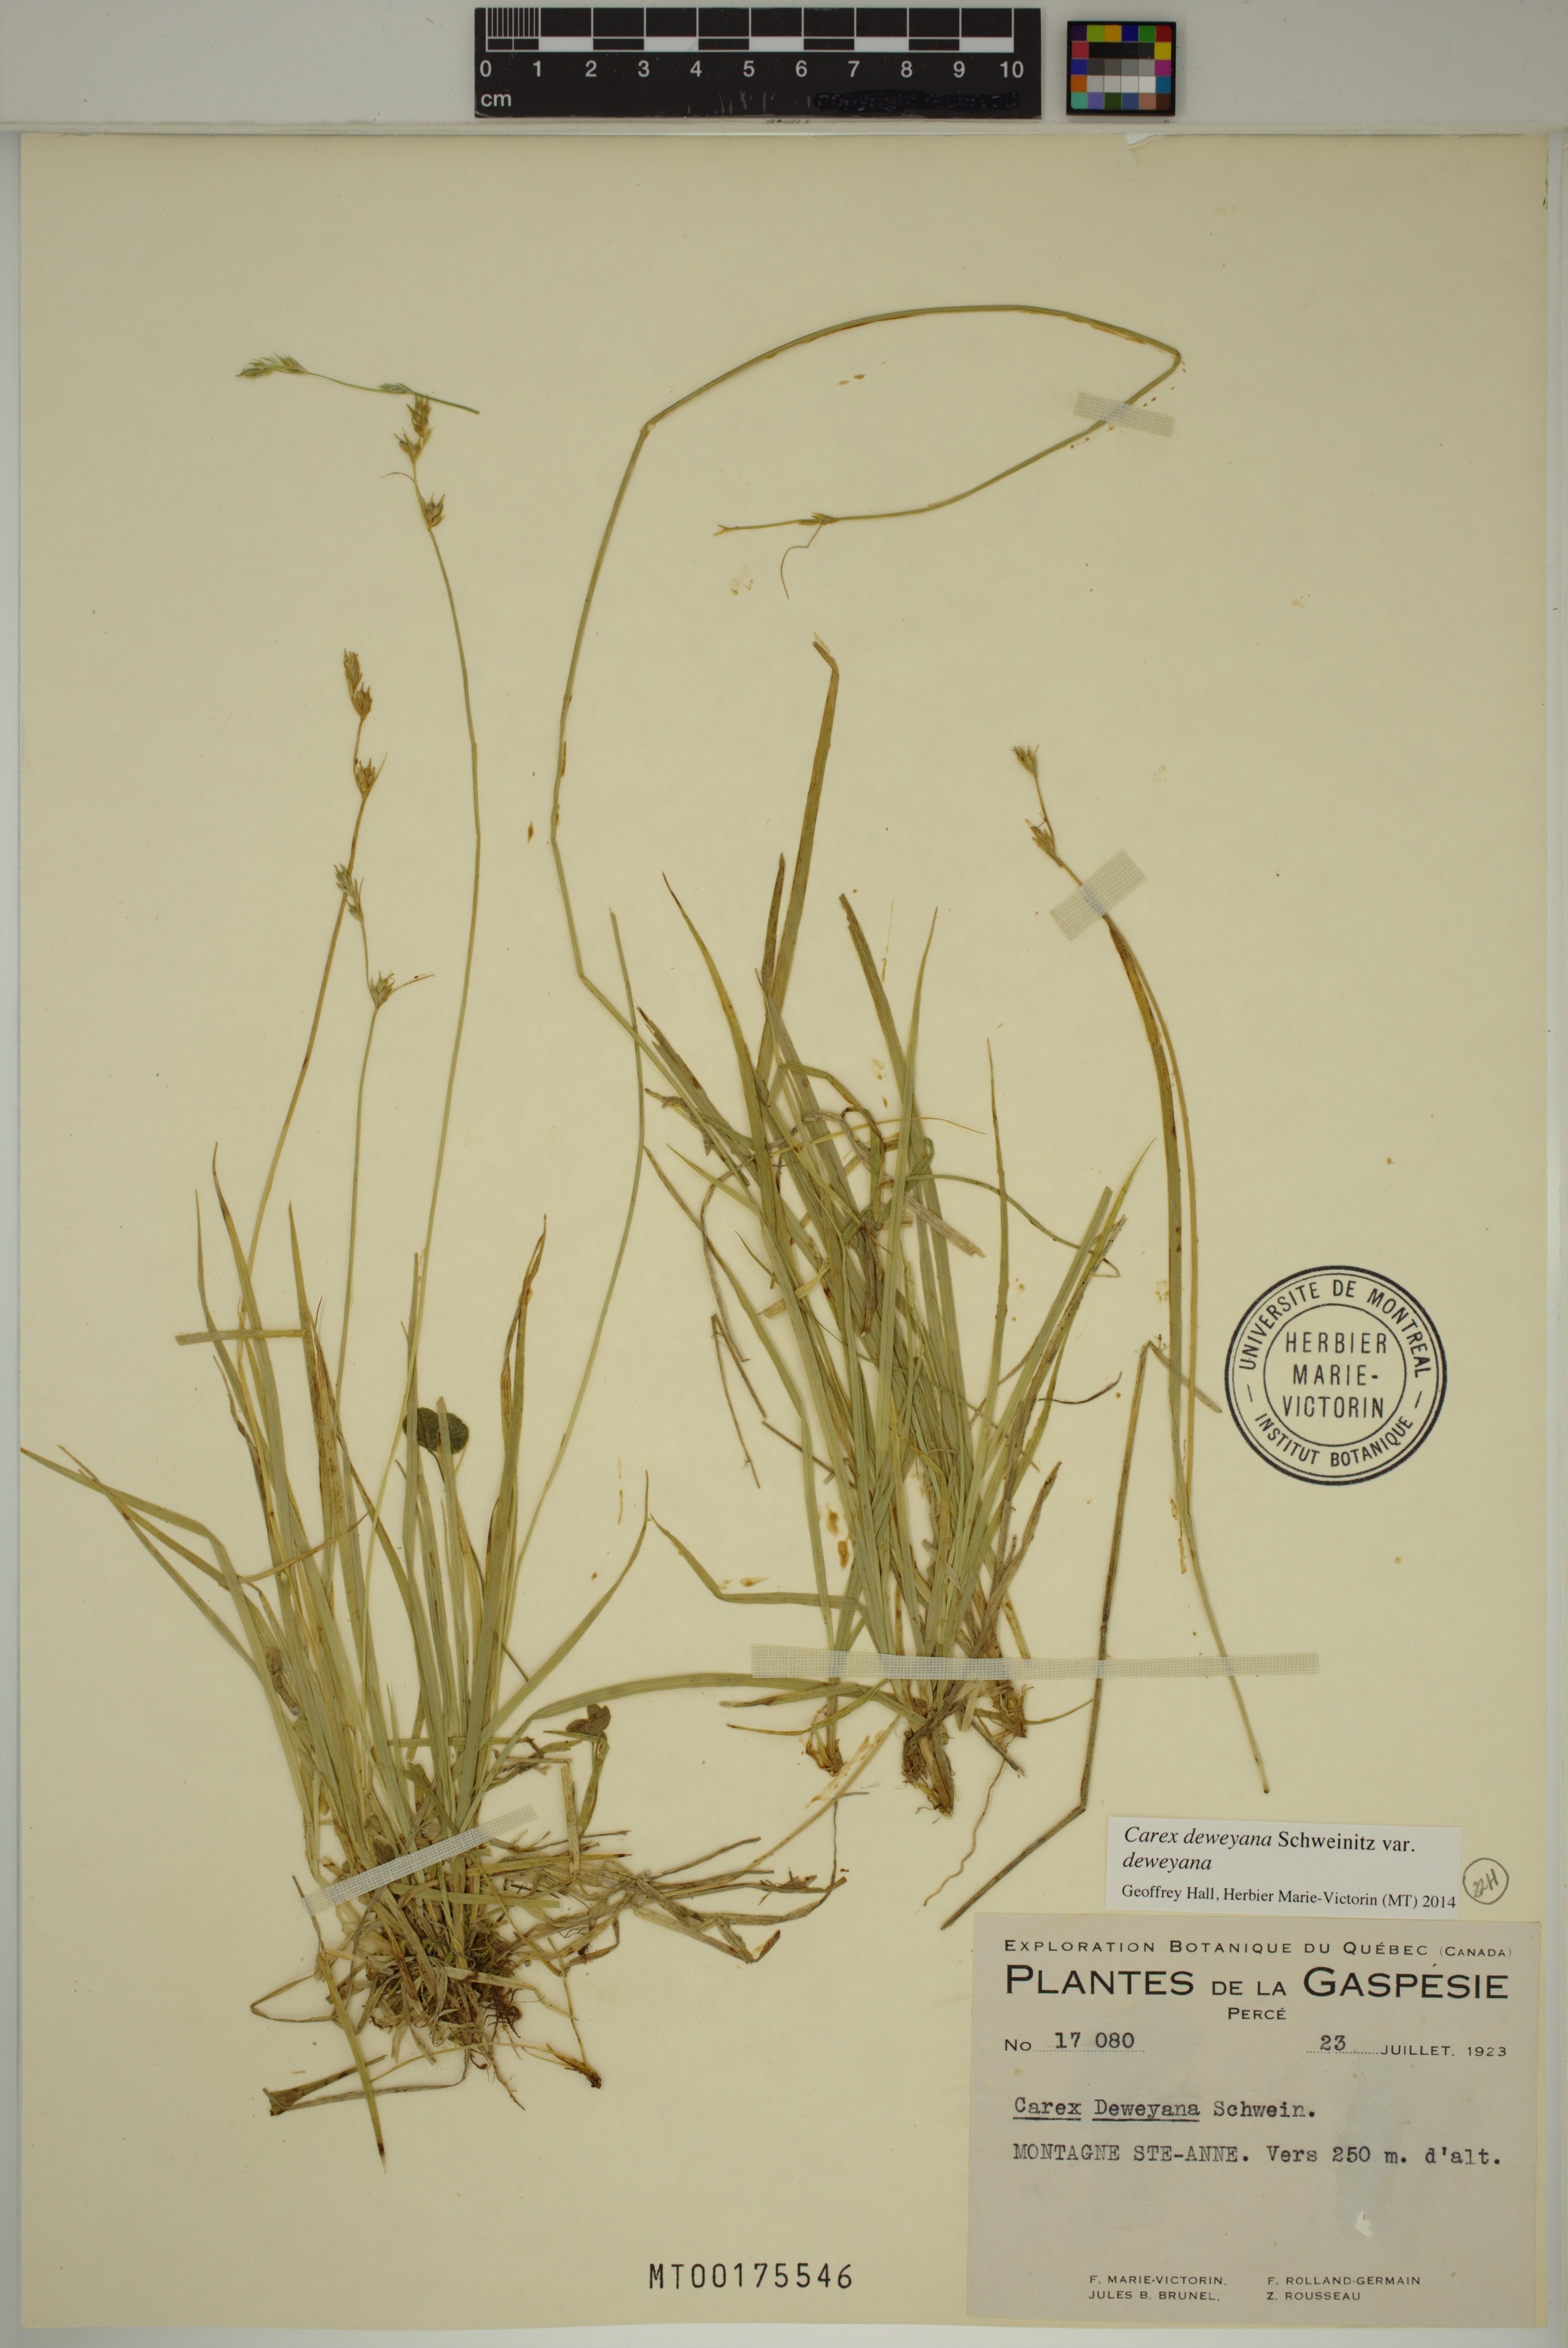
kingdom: Plantae
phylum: Tracheophyta
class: Liliopsida
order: Poales
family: Cyperaceae
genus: Carex
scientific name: Carex deweyana
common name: Dewey's sedge
